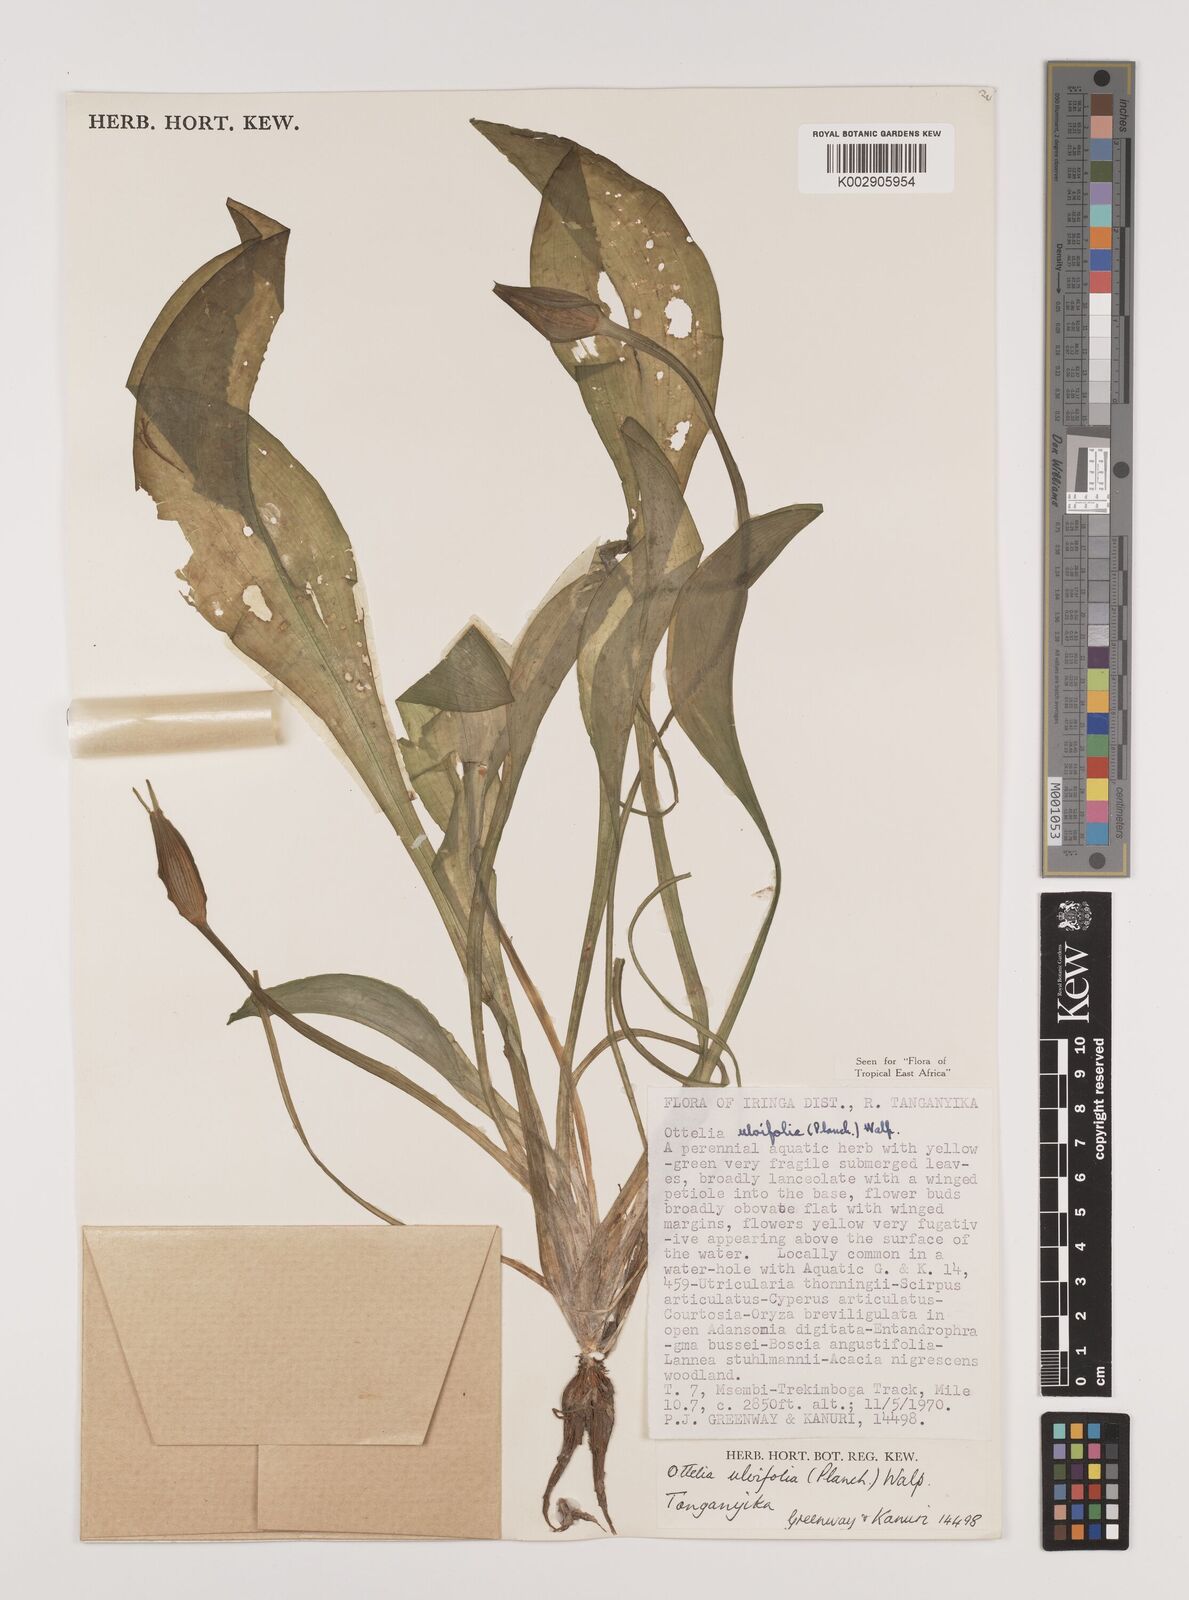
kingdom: Plantae
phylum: Tracheophyta
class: Liliopsida
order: Alismatales
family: Hydrocharitaceae
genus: Ottelia
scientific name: Ottelia ulvifolia
